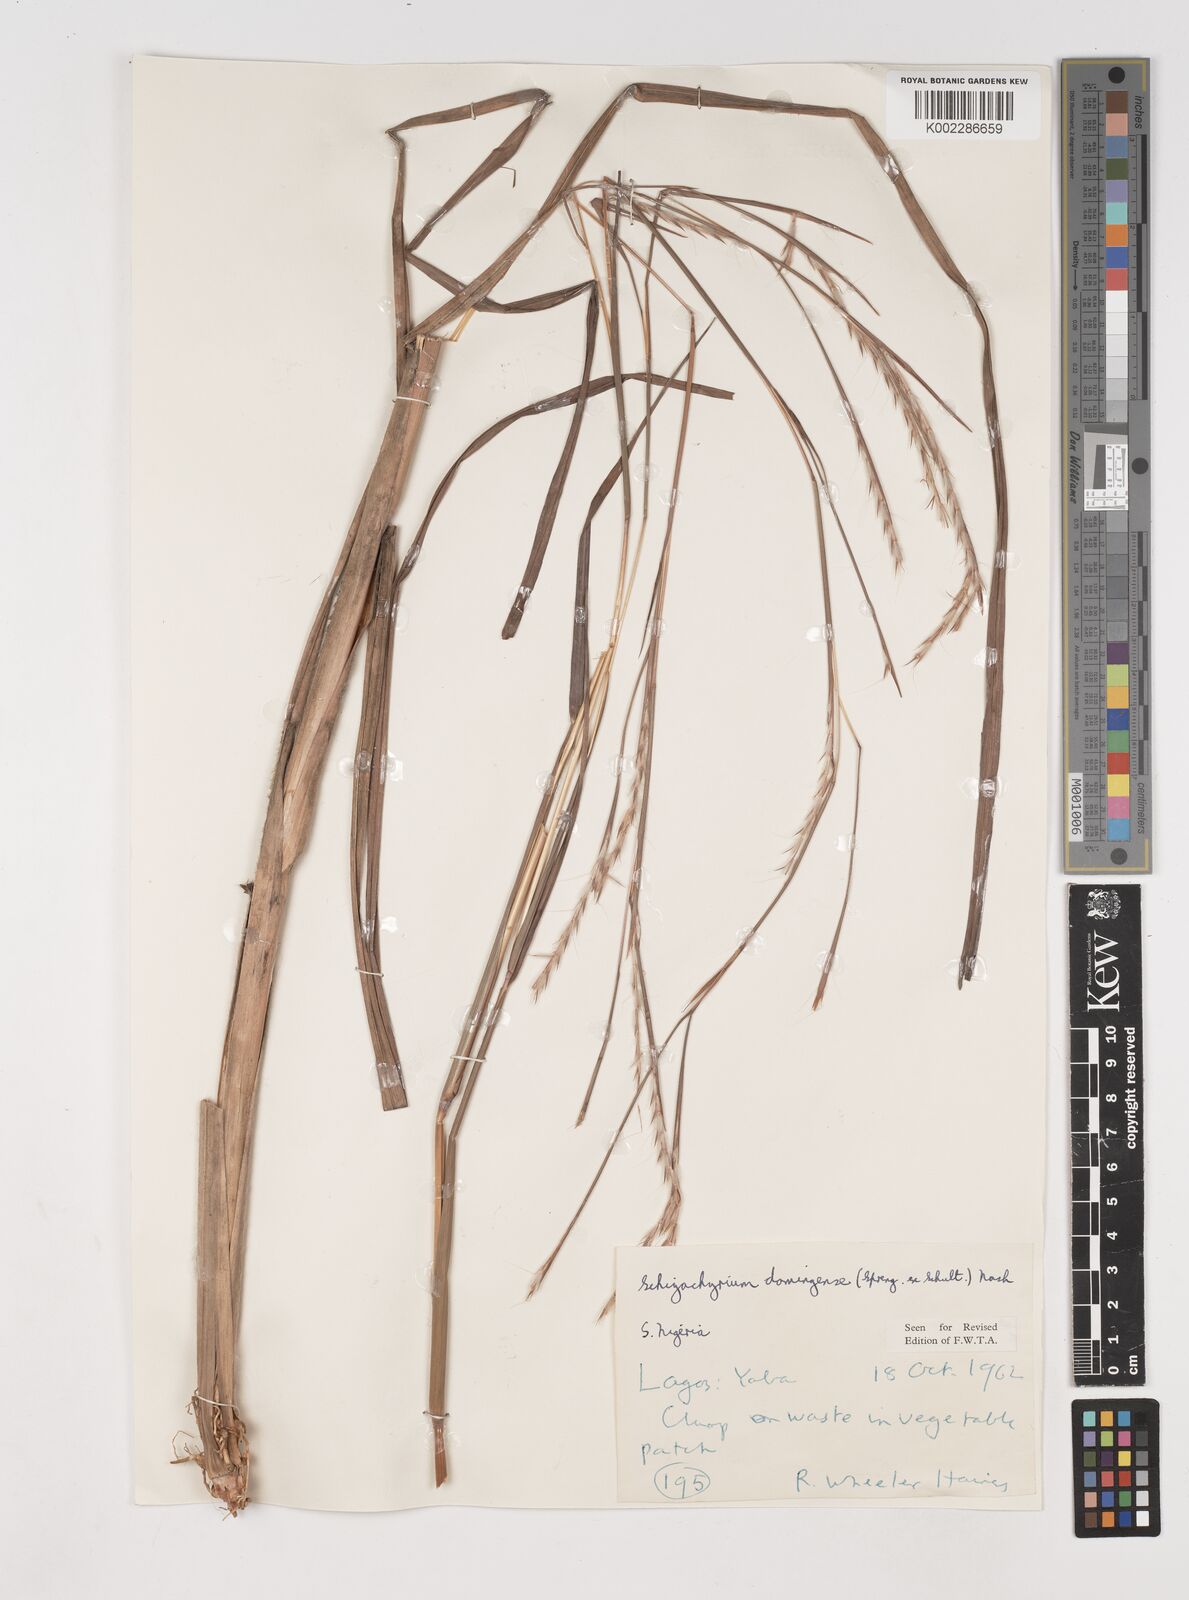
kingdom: Plantae
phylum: Tracheophyta
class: Liliopsida
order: Poales
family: Poaceae
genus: Schizachyrium
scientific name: Schizachyrium sanguineum
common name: Crimson bluestem
